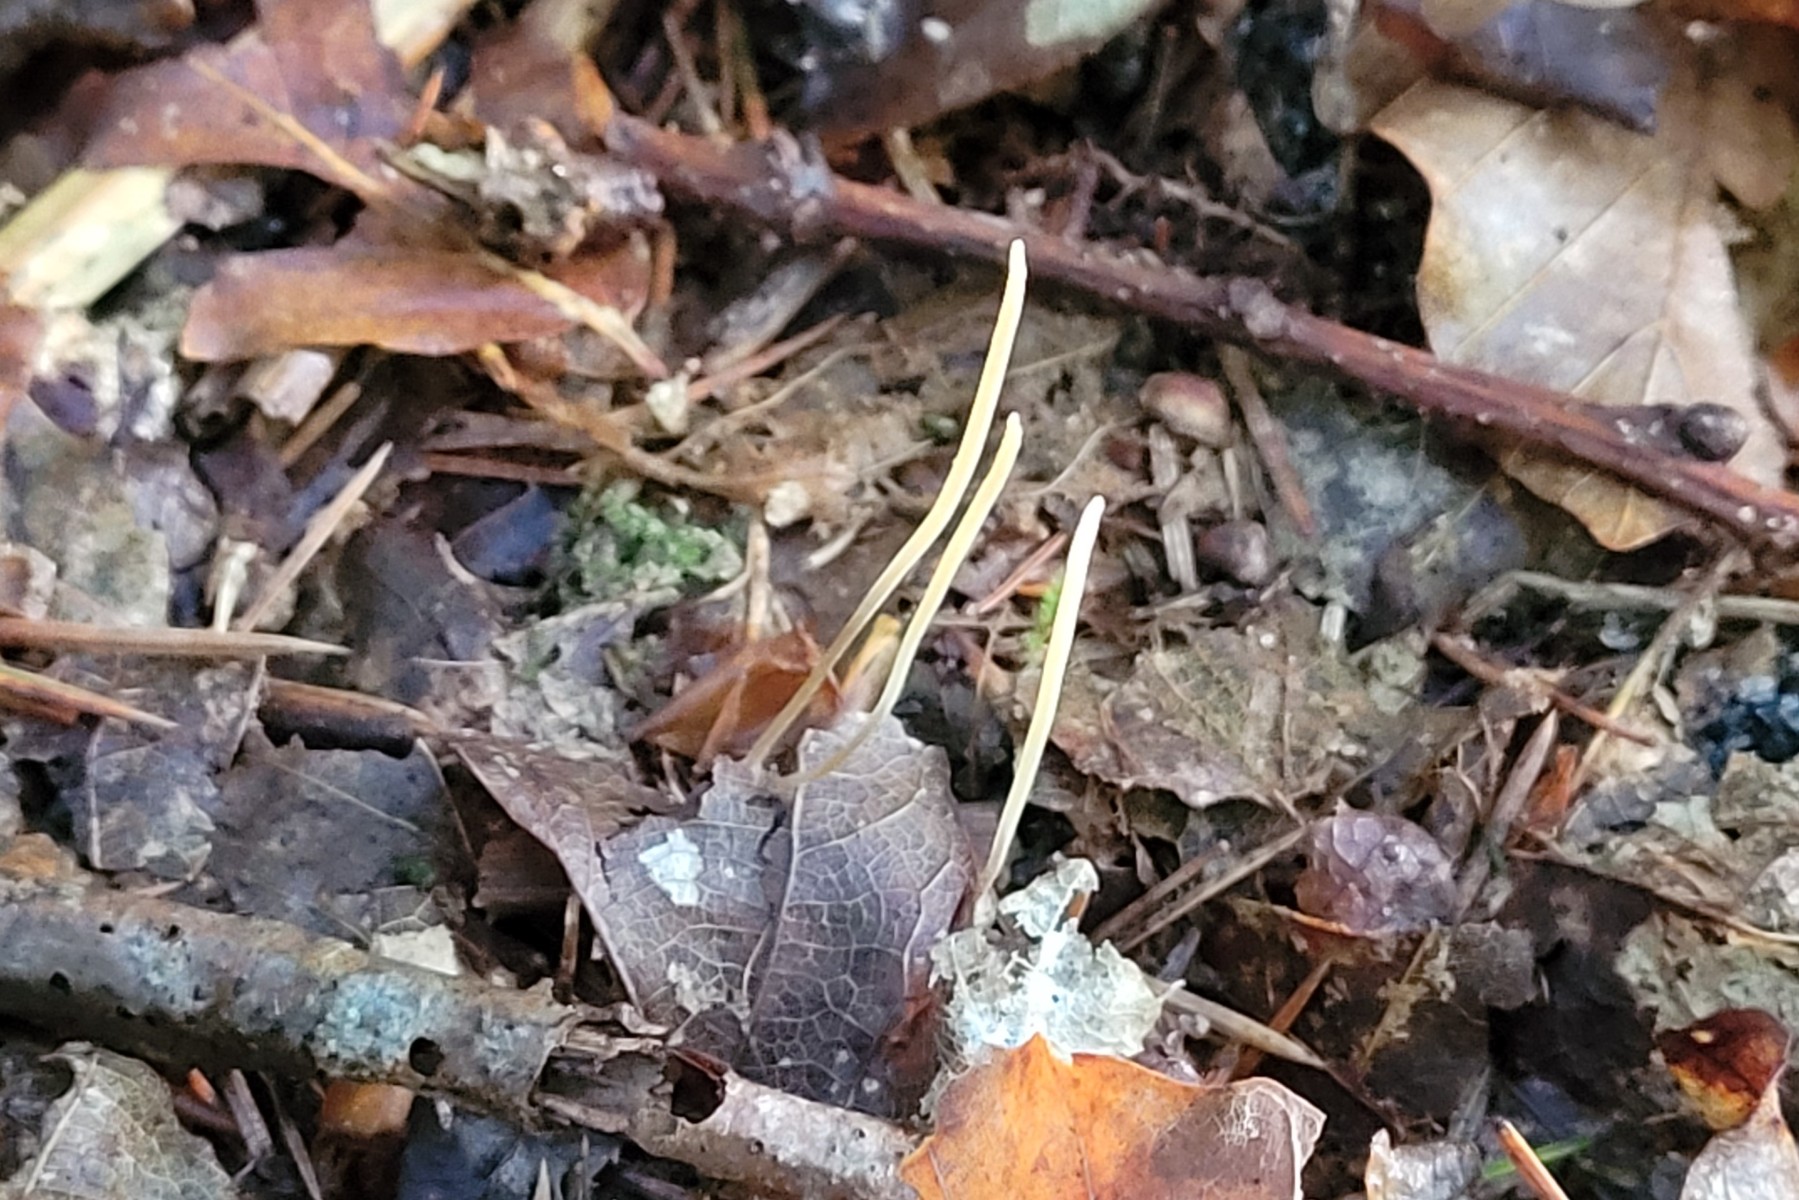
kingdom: Fungi
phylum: Basidiomycota
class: Agaricomycetes
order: Agaricales
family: Typhulaceae
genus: Typhula
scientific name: Typhula juncea
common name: trådagtig rørkølle
